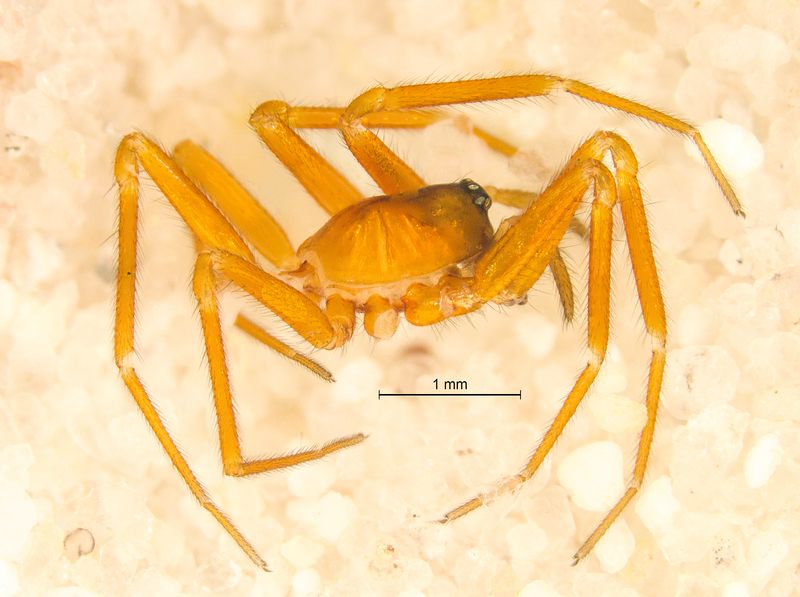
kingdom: Animalia
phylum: Arthropoda
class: Arachnida
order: Araneae
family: Linyphiidae
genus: Walckenaeria
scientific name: Walckenaeria corniculans
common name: Small-horned walckenaer
